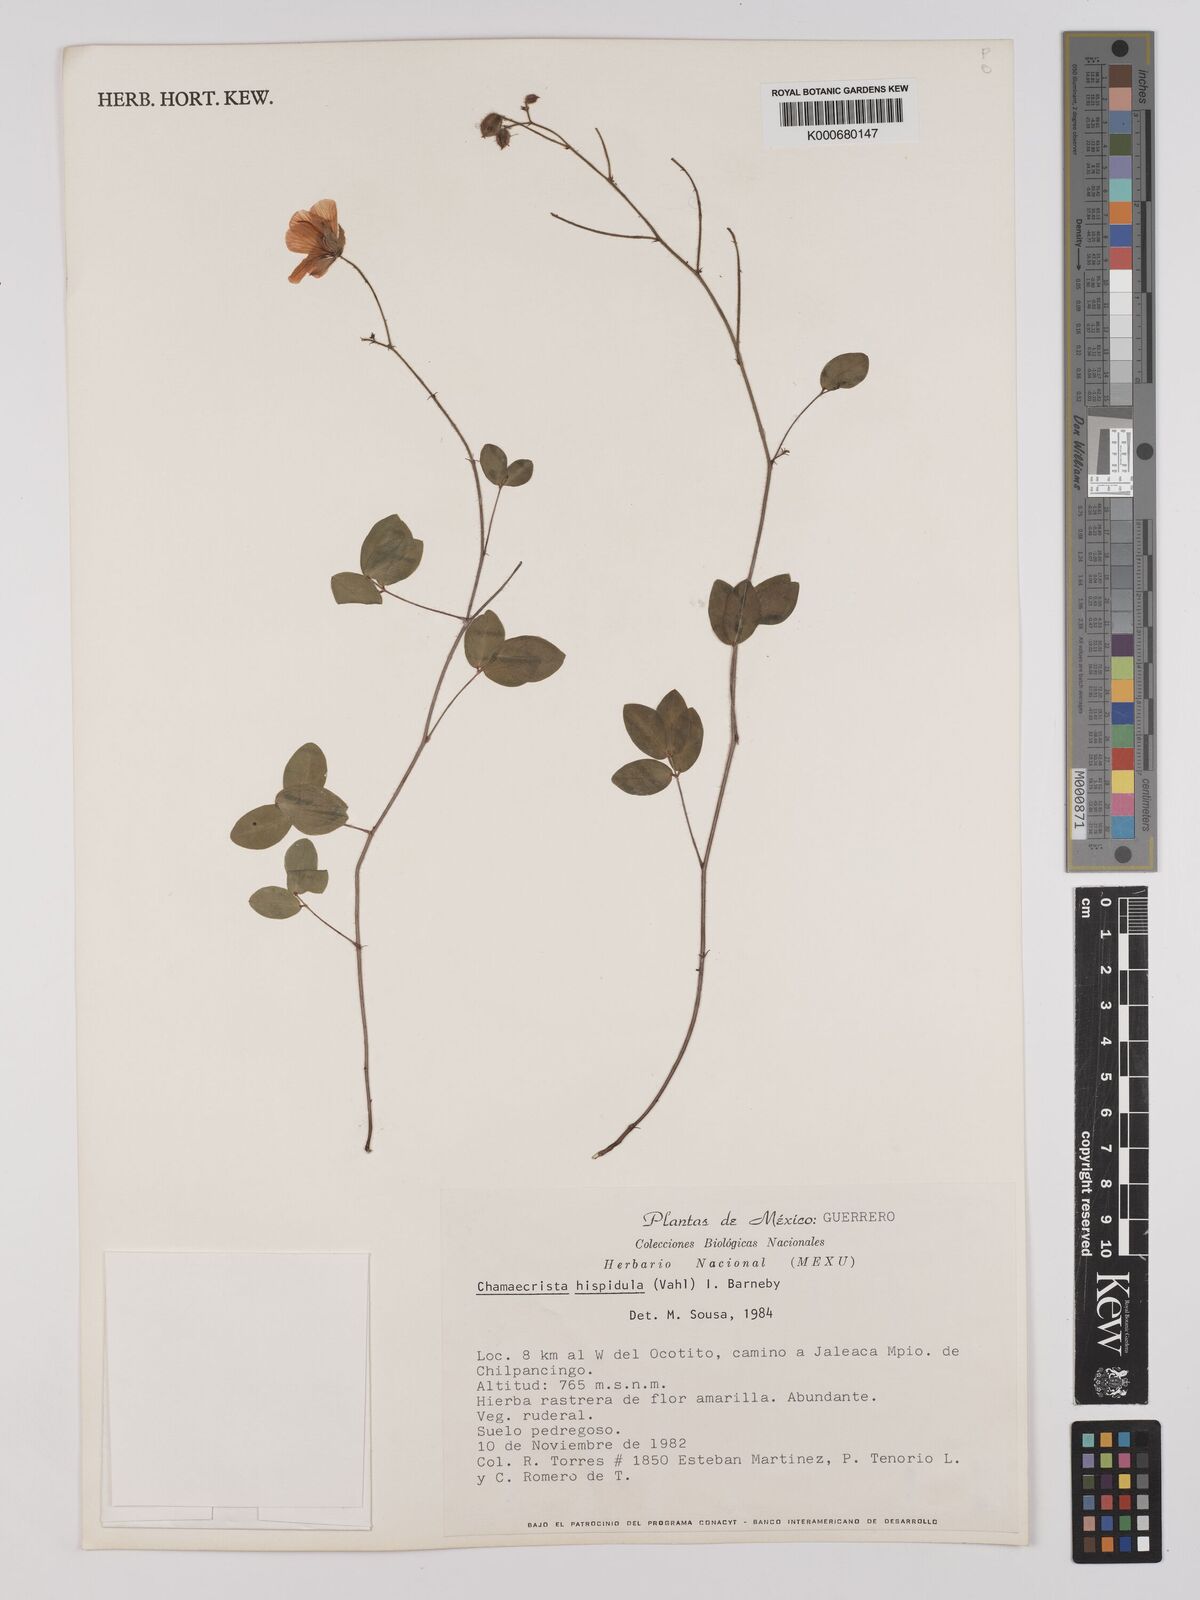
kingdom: Plantae
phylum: Tracheophyta
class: Magnoliopsida
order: Fabales
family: Fabaceae
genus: Chamaecrista
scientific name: Chamaecrista hispidula
